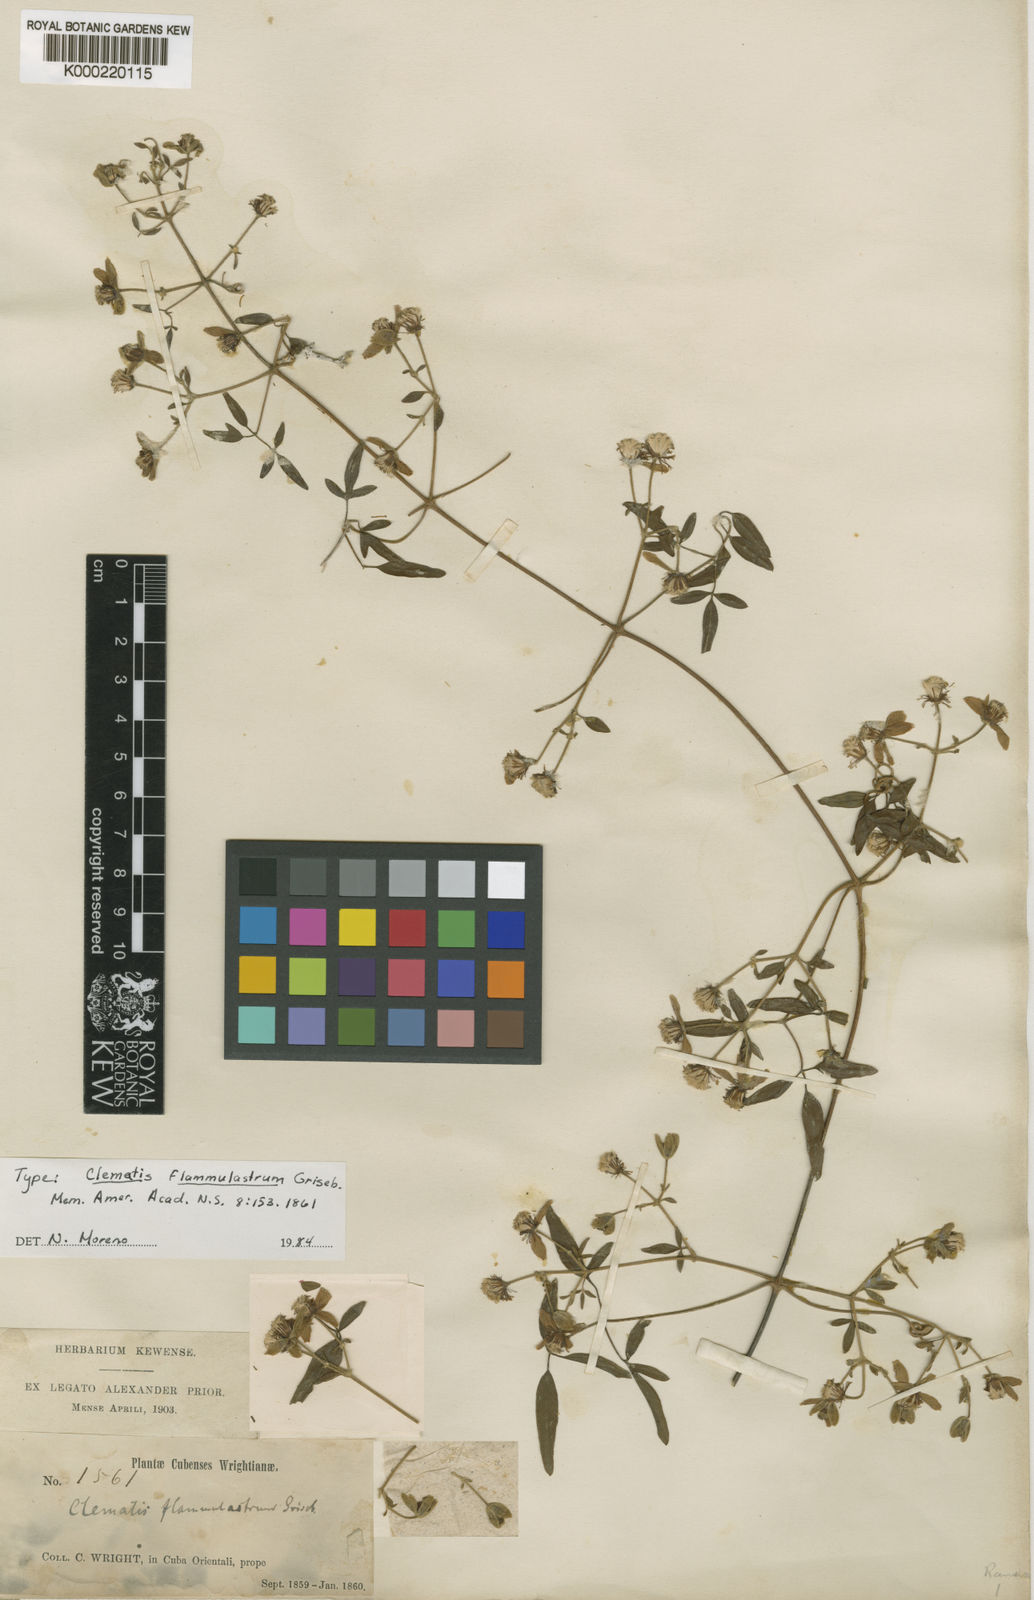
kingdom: Plantae
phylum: Tracheophyta
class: Magnoliopsida
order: Ranunculales
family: Ranunculaceae
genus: Clematis
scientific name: Clematis flammulastrum
